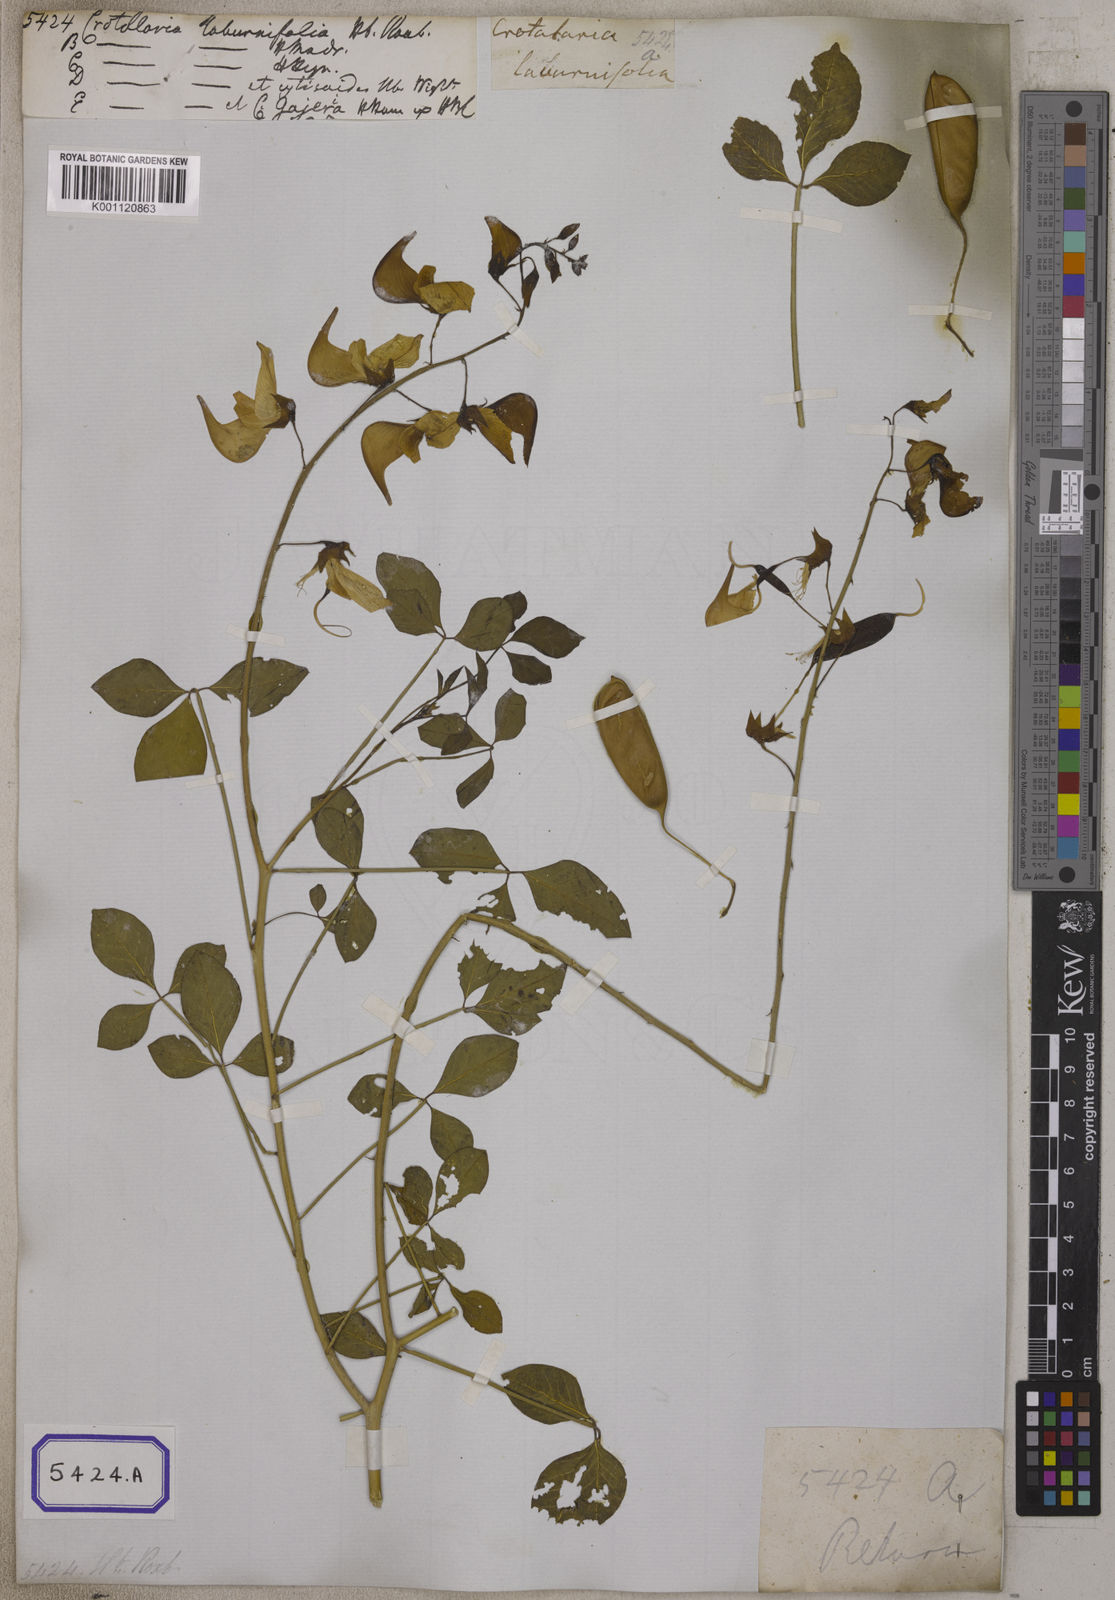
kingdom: Plantae
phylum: Tracheophyta
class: Magnoliopsida
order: Fabales
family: Fabaceae
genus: Crotalaria
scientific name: Crotalaria laburnifolia
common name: Birdflower
